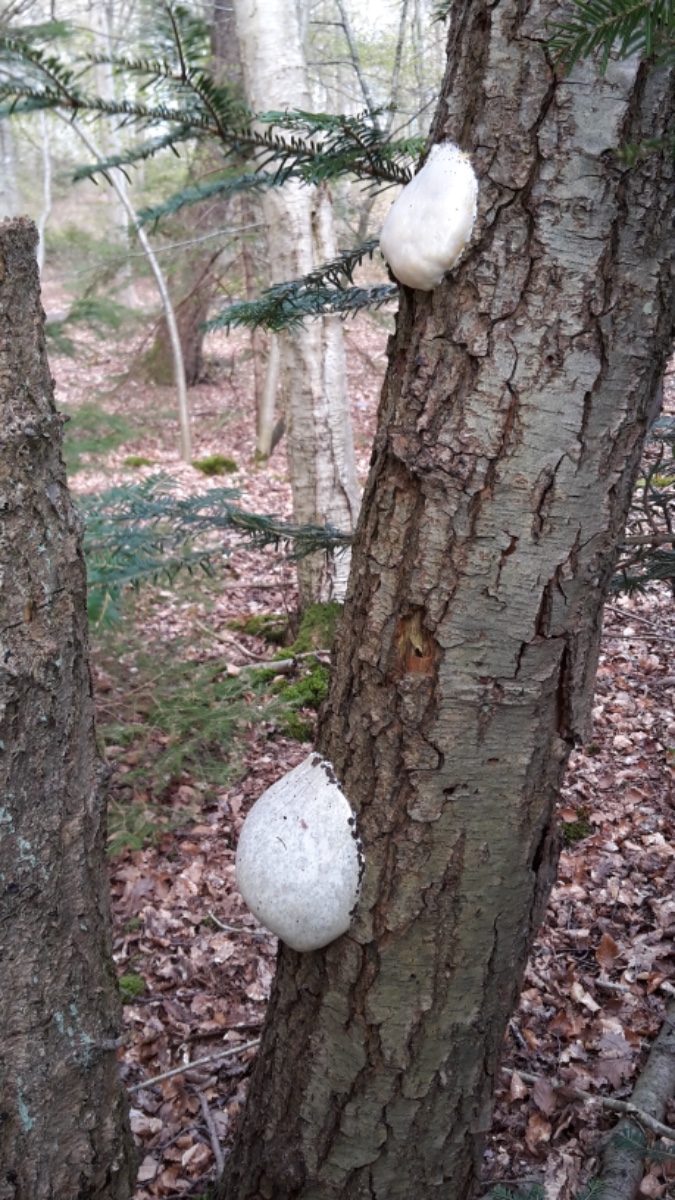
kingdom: Protozoa
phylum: Mycetozoa
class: Myxomycetes
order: Cribrariales
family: Tubiferaceae
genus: Reticularia
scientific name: Reticularia lycoperdon
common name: skinnende støvpude
